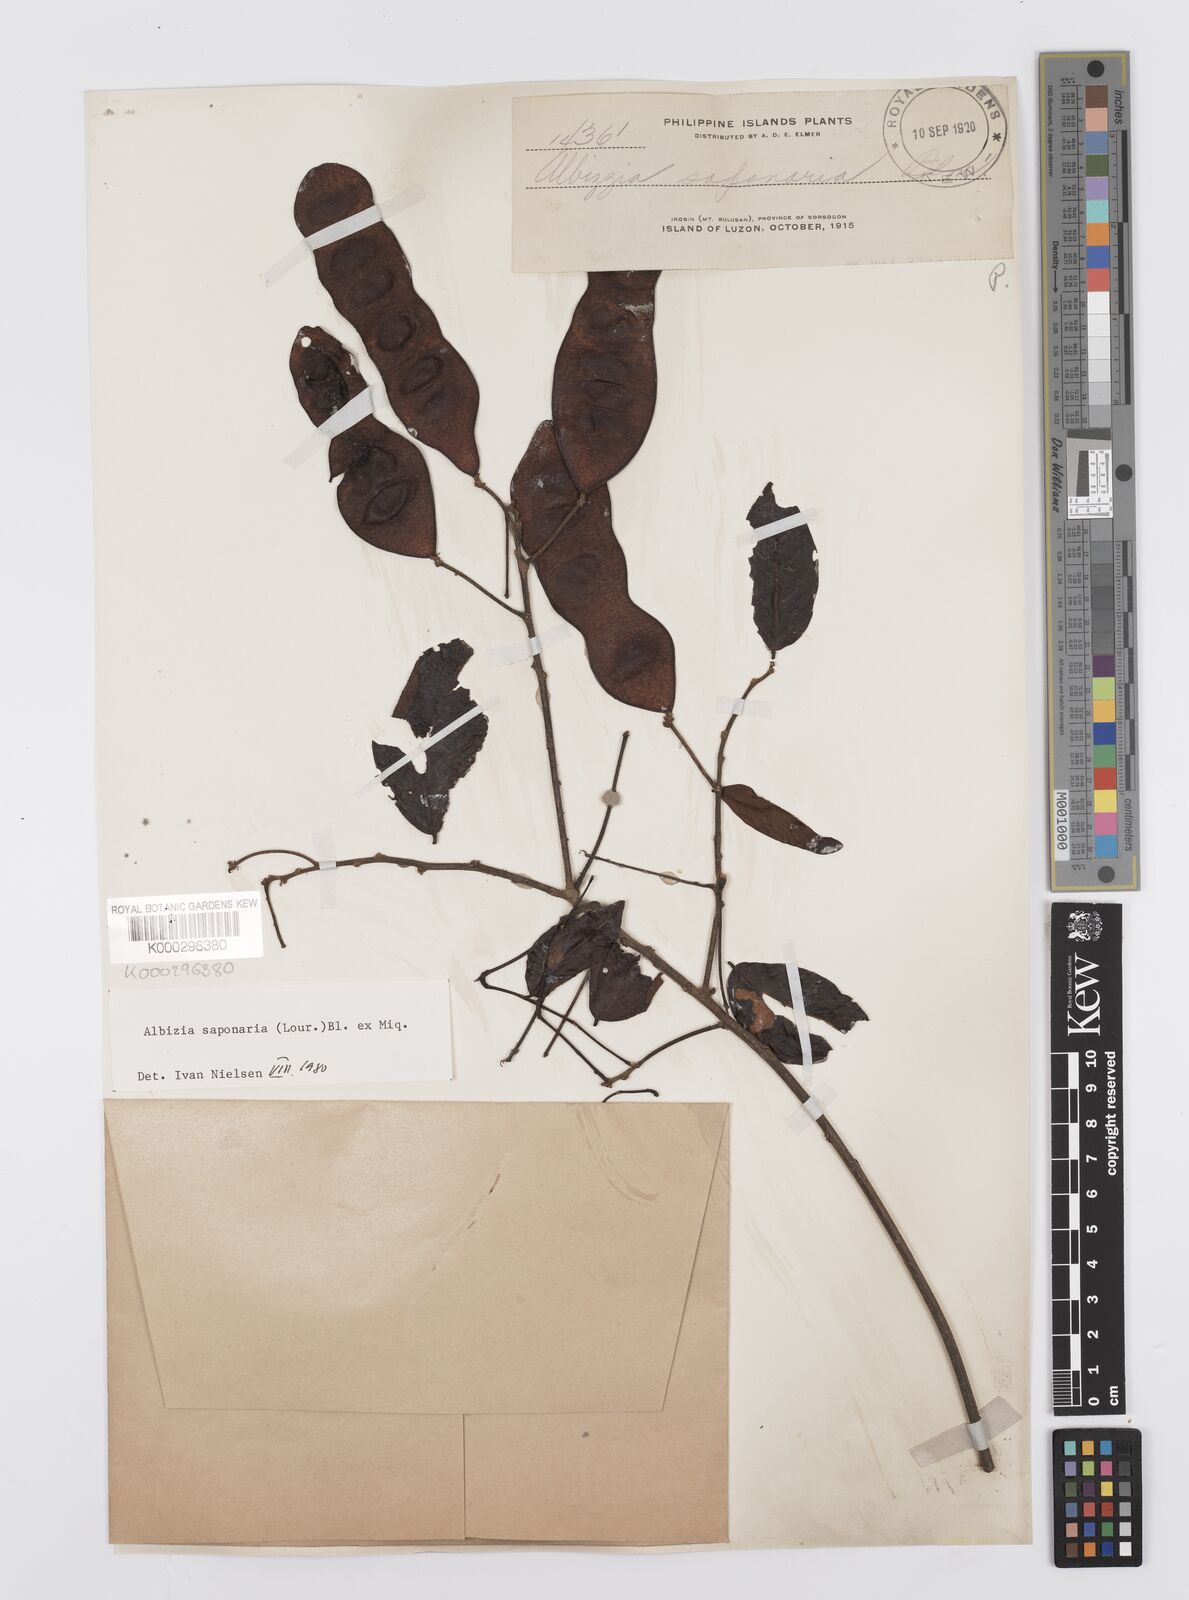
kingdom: Plantae
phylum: Tracheophyta
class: Magnoliopsida
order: Fabales
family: Fabaceae
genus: Albizia
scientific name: Albizia saponaria
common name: Whiteflower albizia
